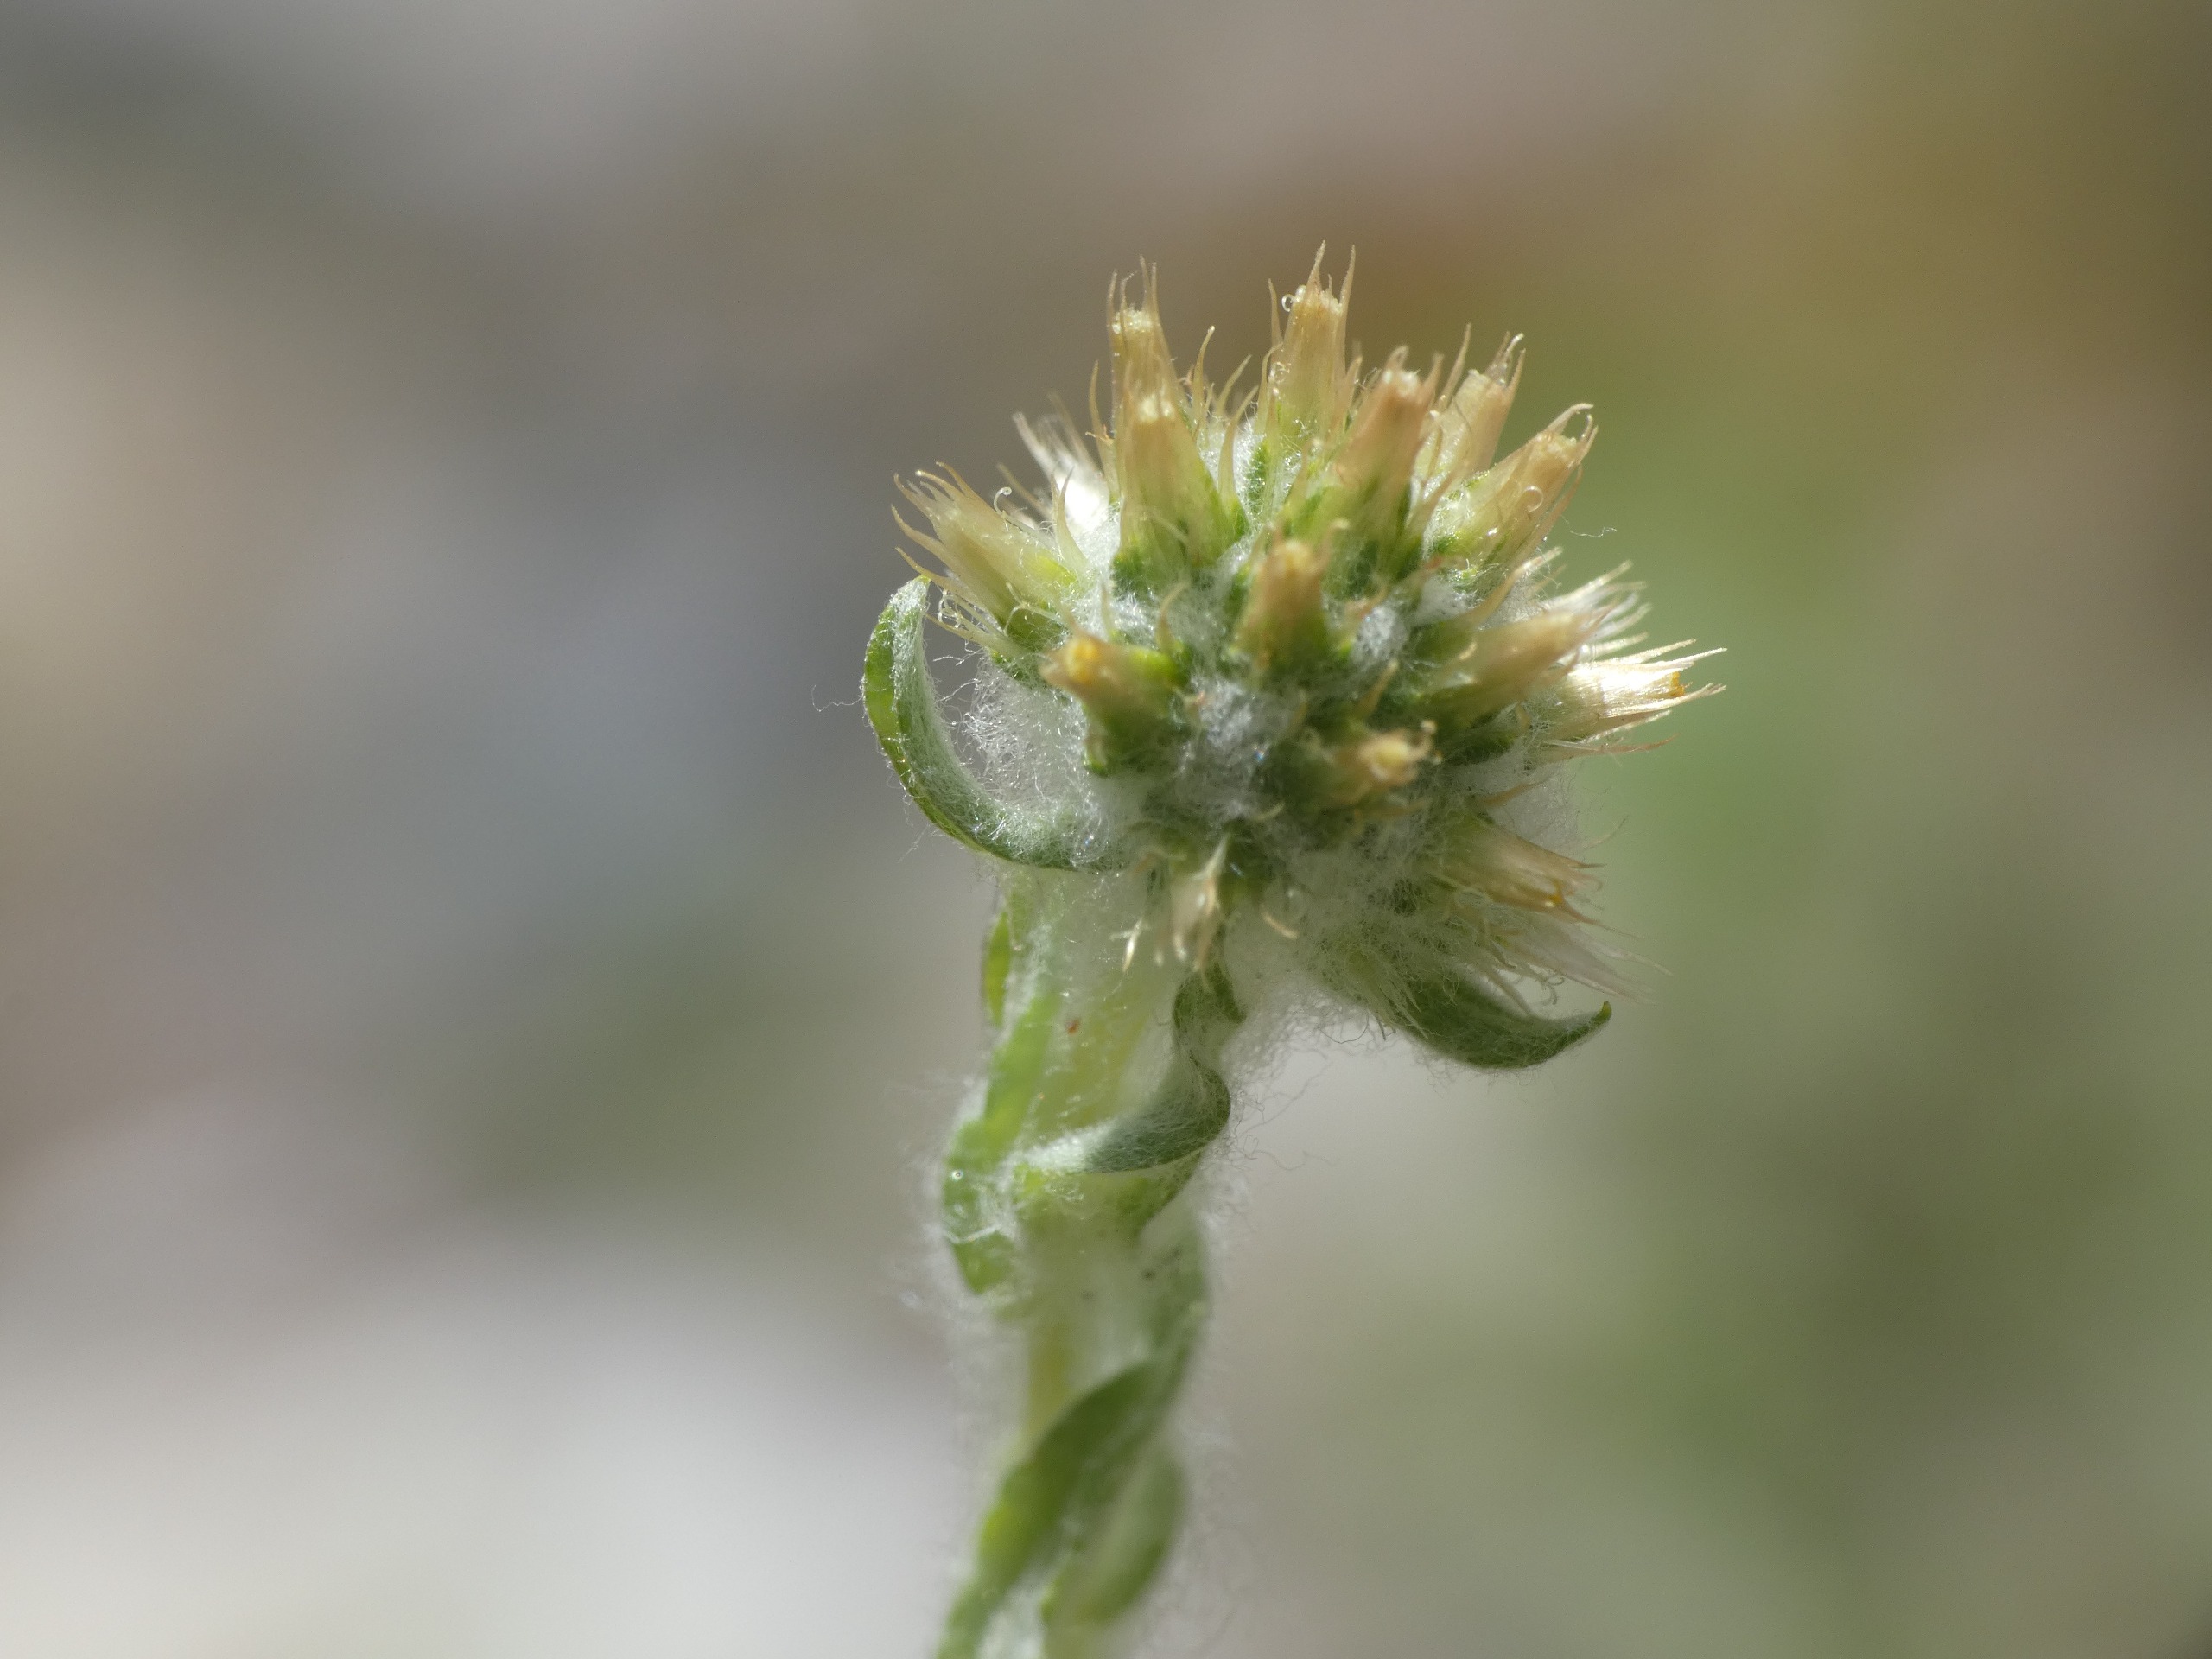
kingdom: Plantae
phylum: Tracheophyta
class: Magnoliopsida
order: Asterales
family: Asteraceae
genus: Filago
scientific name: Filago germanica
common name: Kugle-museurt
